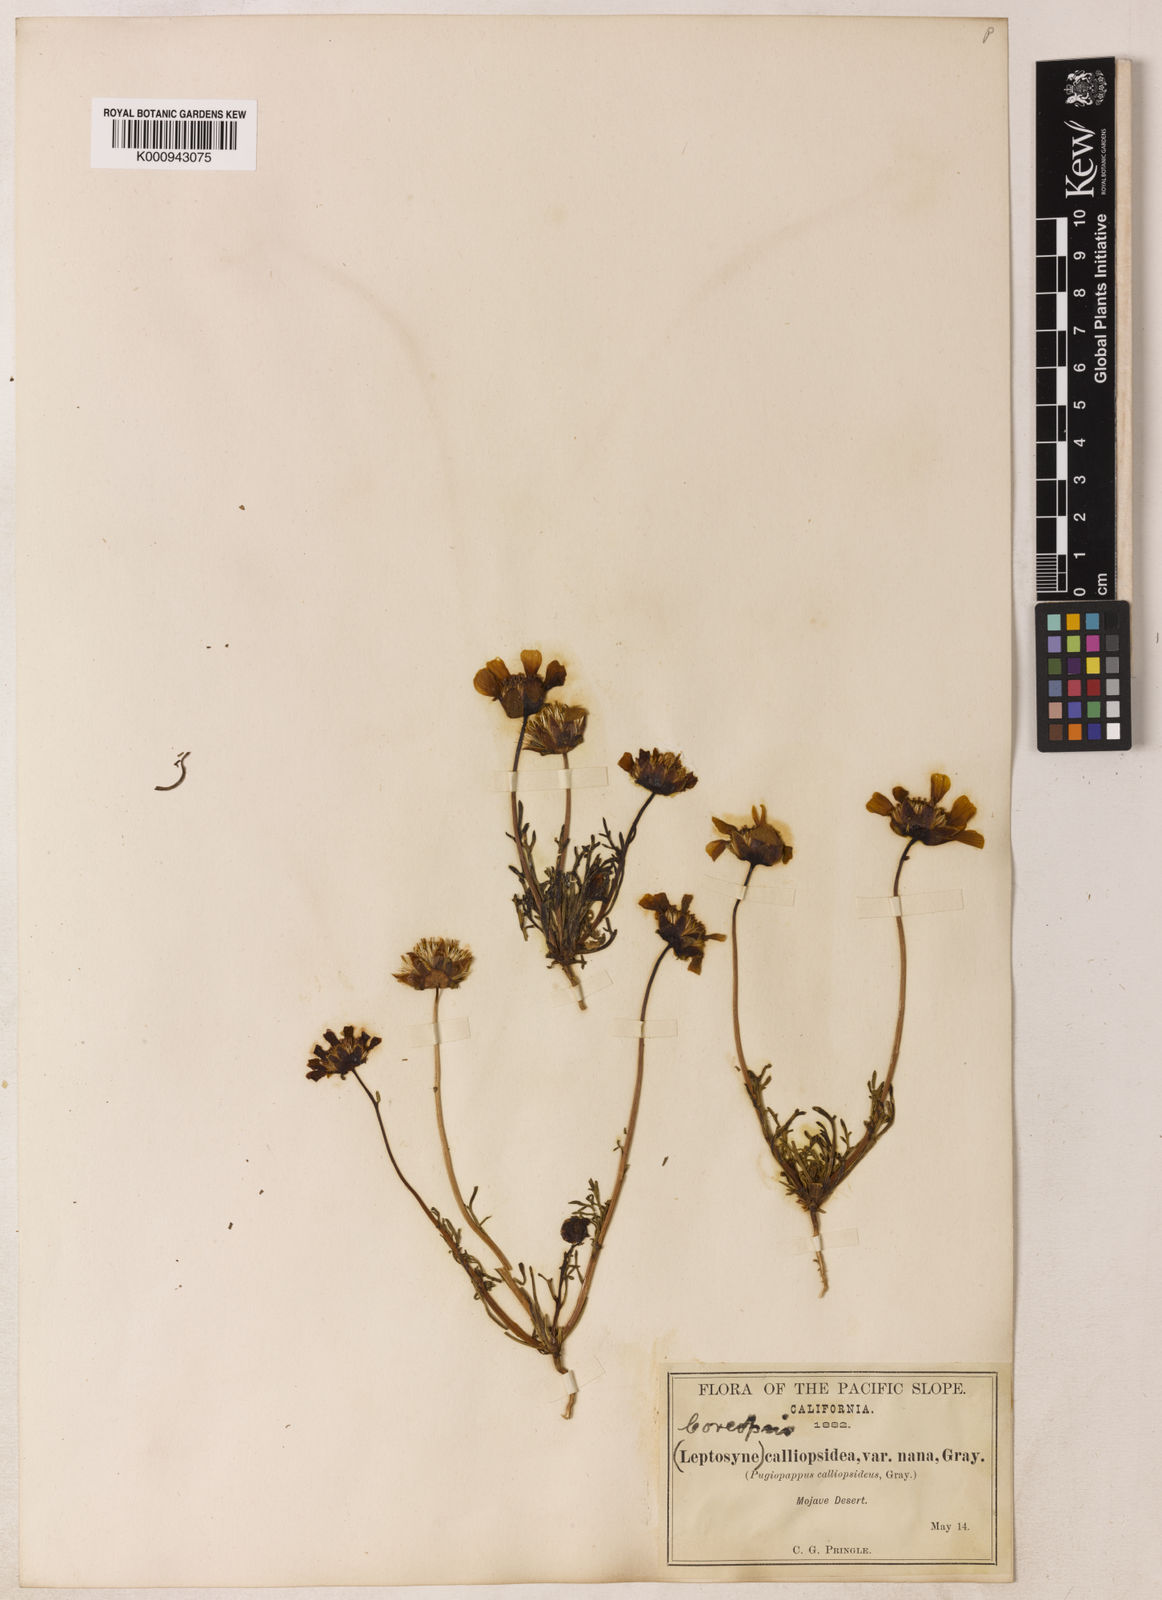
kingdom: Plantae
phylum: Tracheophyta
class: Magnoliopsida
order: Asterales
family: Asteraceae
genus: Coreopsis
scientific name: Coreopsis calliopsidea
